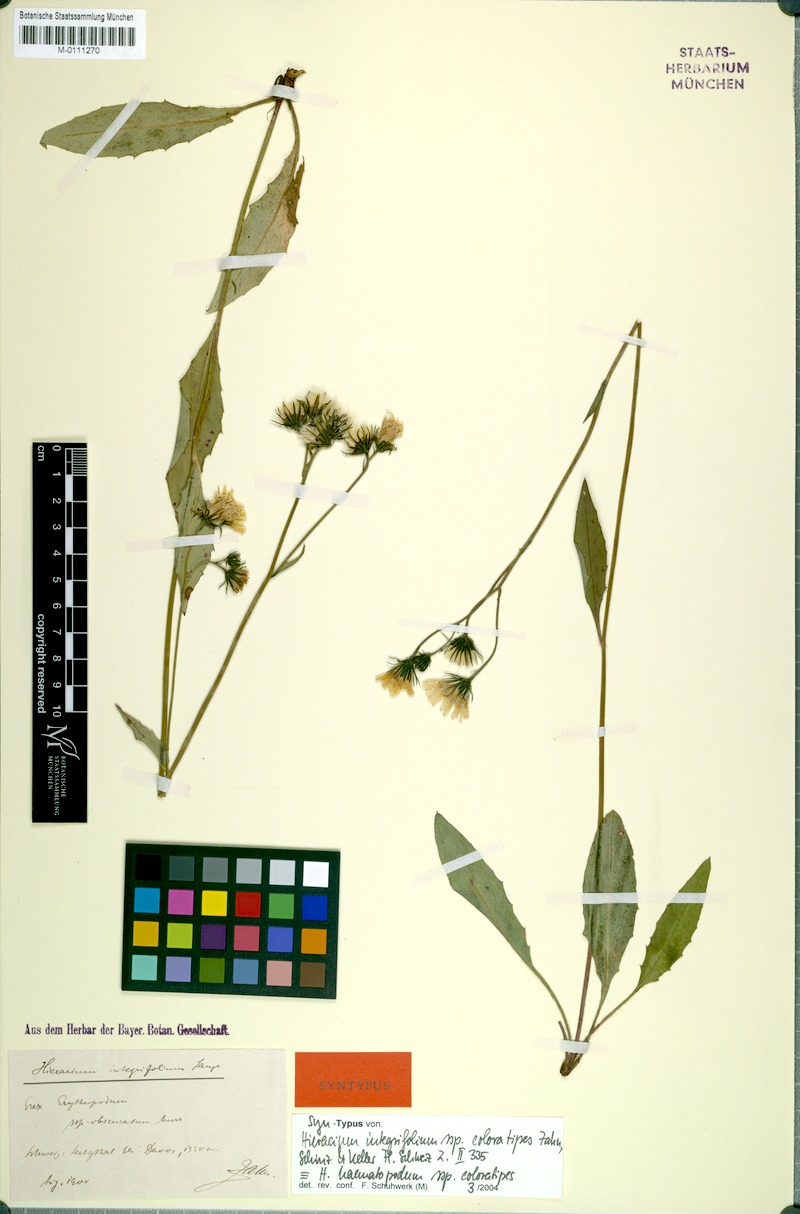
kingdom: Plantae
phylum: Tracheophyta
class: Magnoliopsida
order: Asterales
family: Asteraceae
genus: Hieracium
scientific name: Hieracium umbrosum
